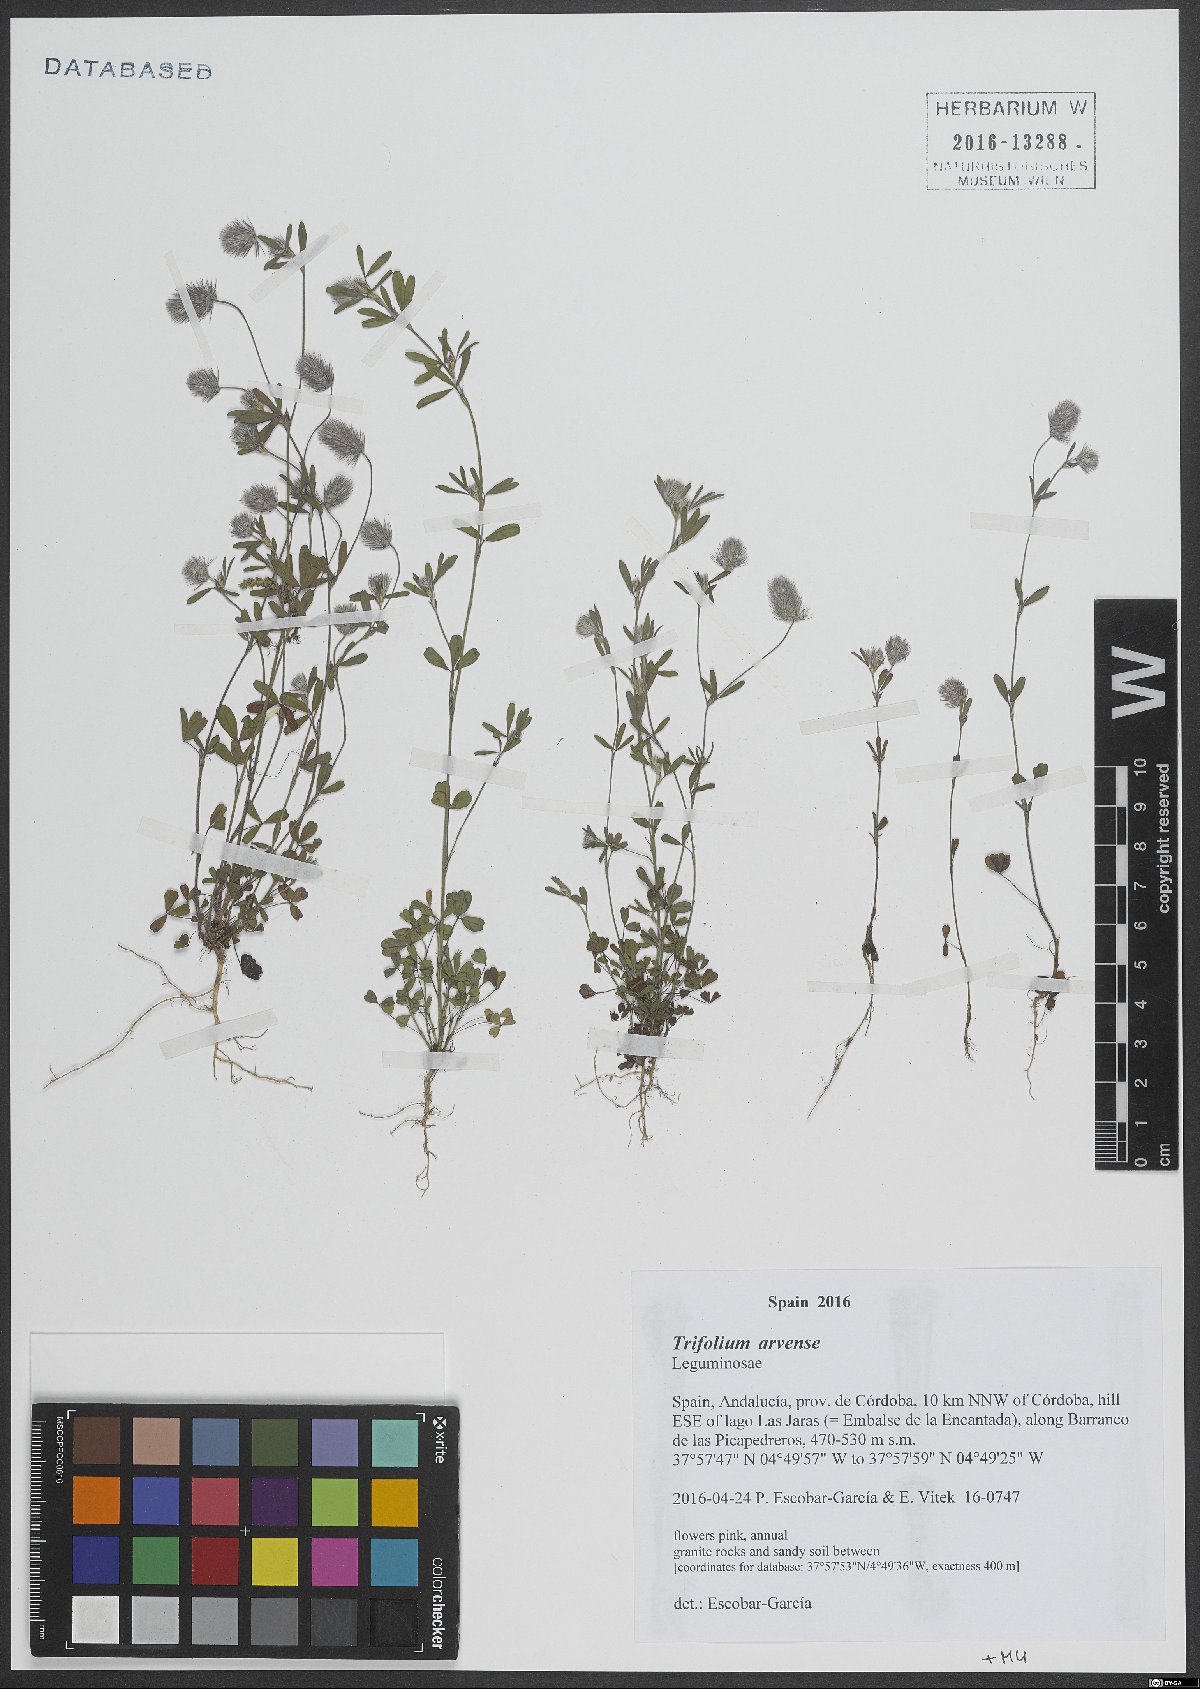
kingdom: Plantae
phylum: Tracheophyta
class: Magnoliopsida
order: Fabales
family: Fabaceae
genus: Trifolium
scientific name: Trifolium arvense
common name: Hare's-foot clover
